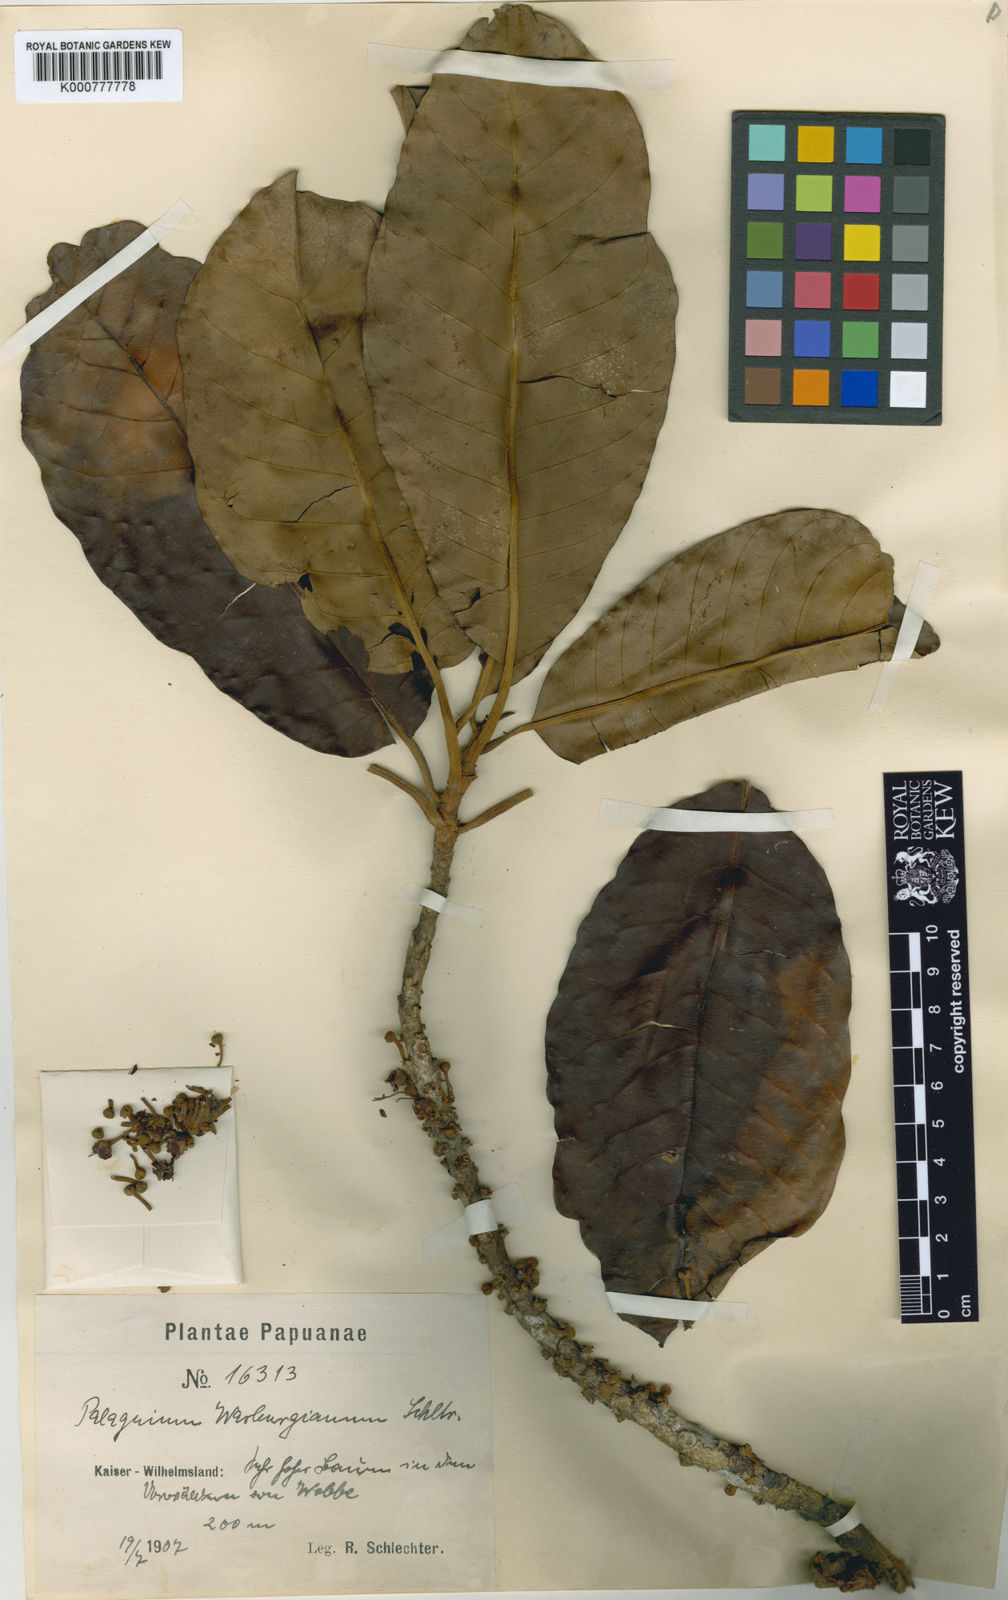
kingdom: Plantae
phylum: Tracheophyta
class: Magnoliopsida
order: Ericales
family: Sapotaceae
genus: Palaquium
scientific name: Palaquium warburgianum
